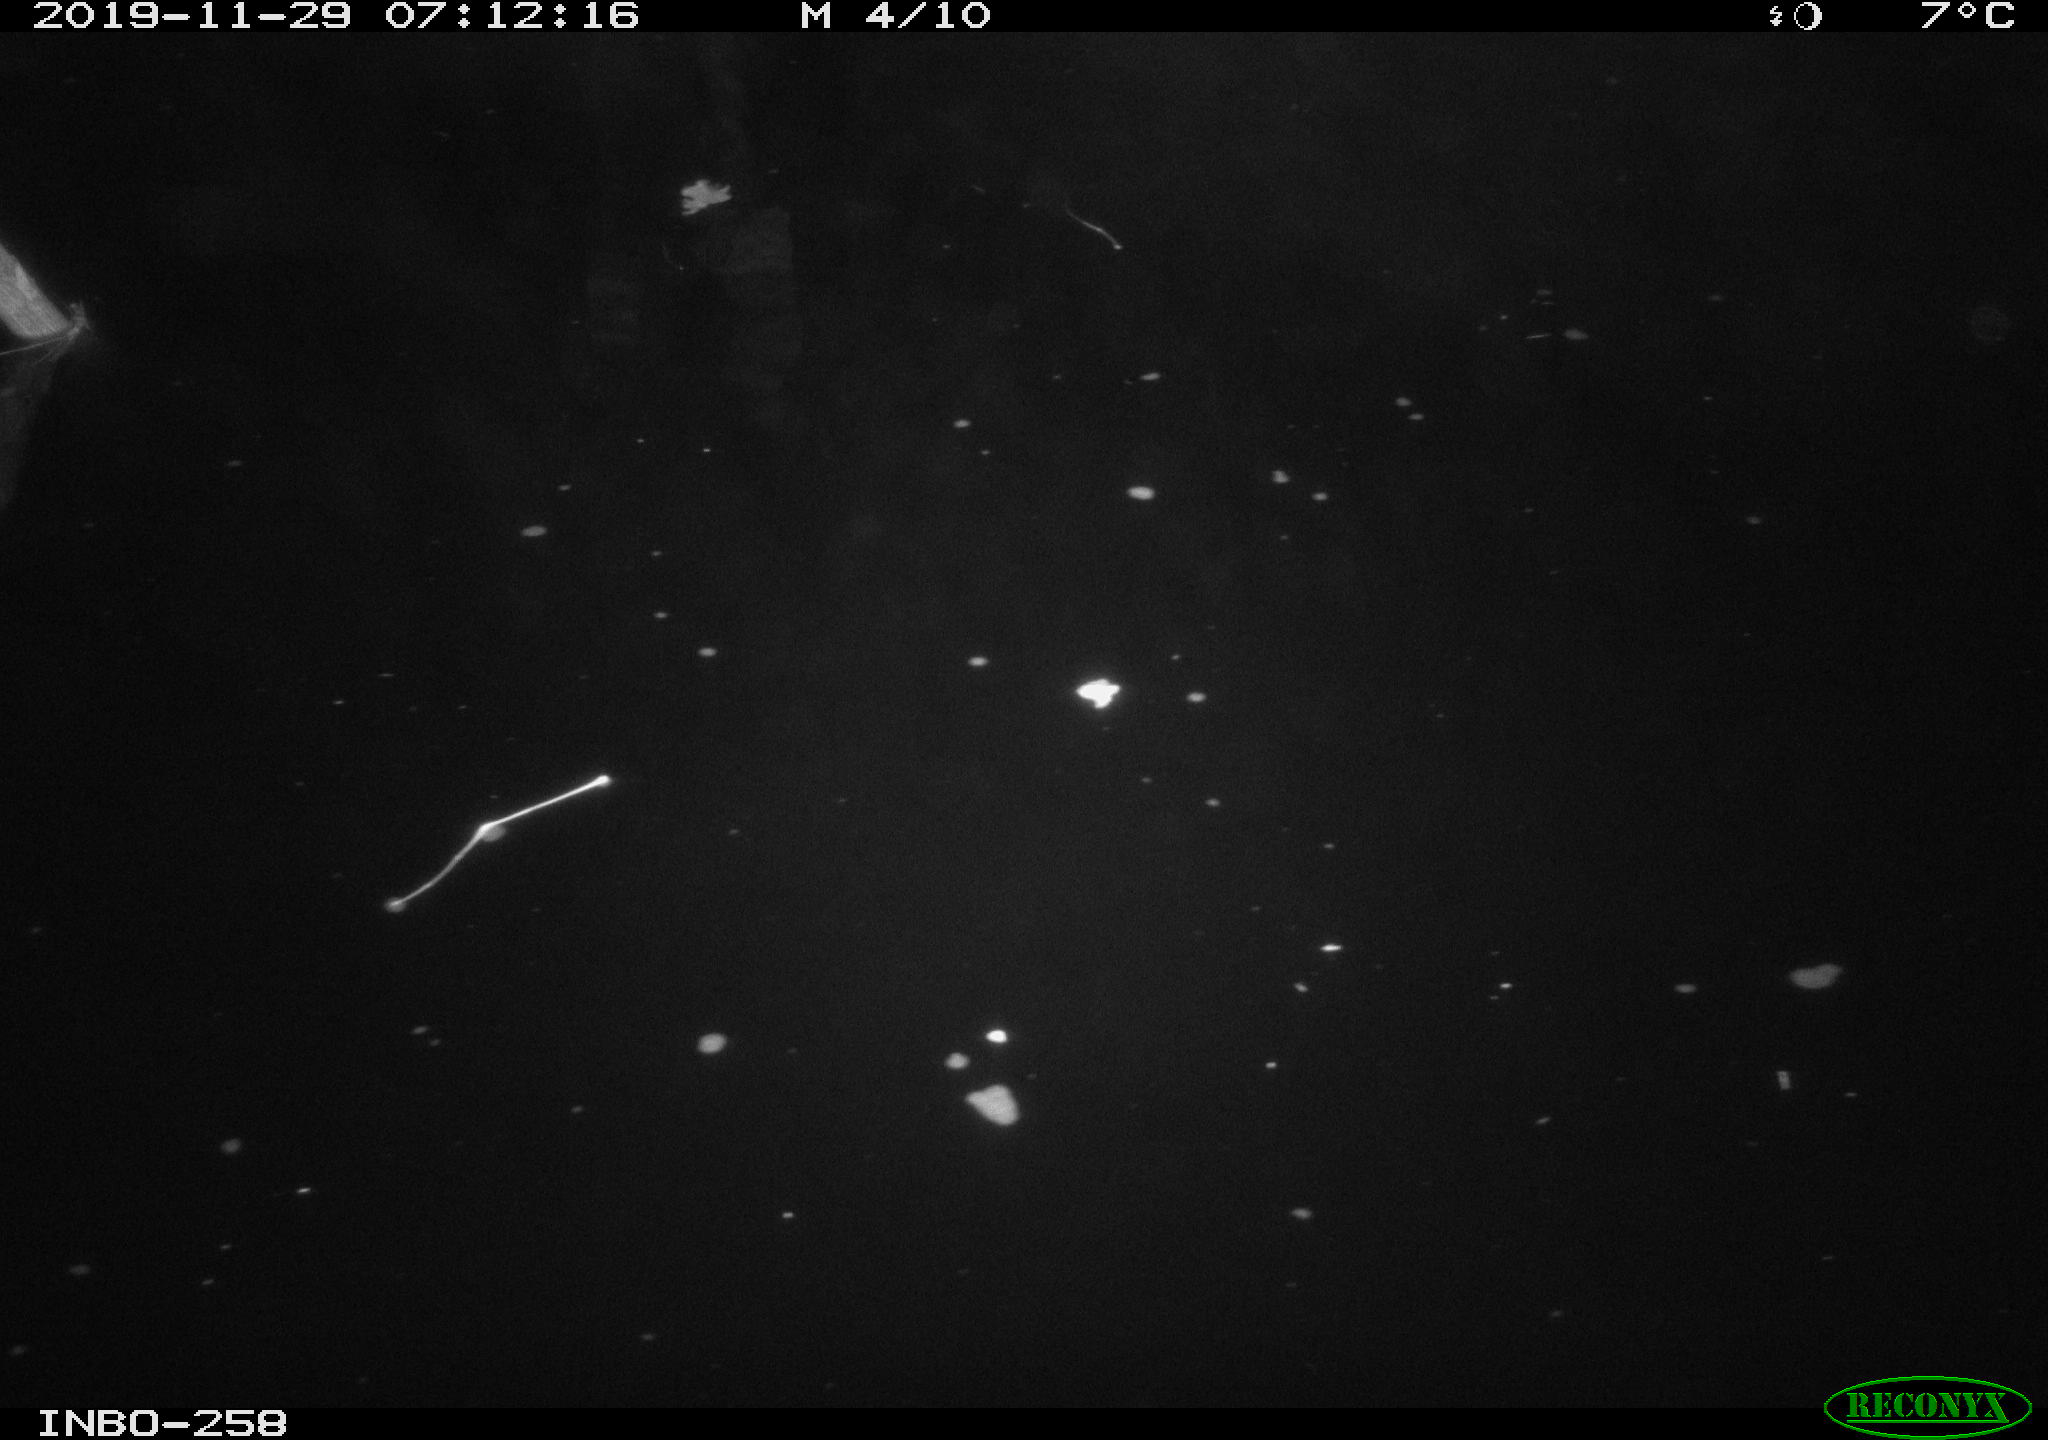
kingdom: Animalia
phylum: Chordata
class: Aves
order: Anseriformes
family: Anatidae
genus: Anas
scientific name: Anas platyrhynchos
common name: Mallard
